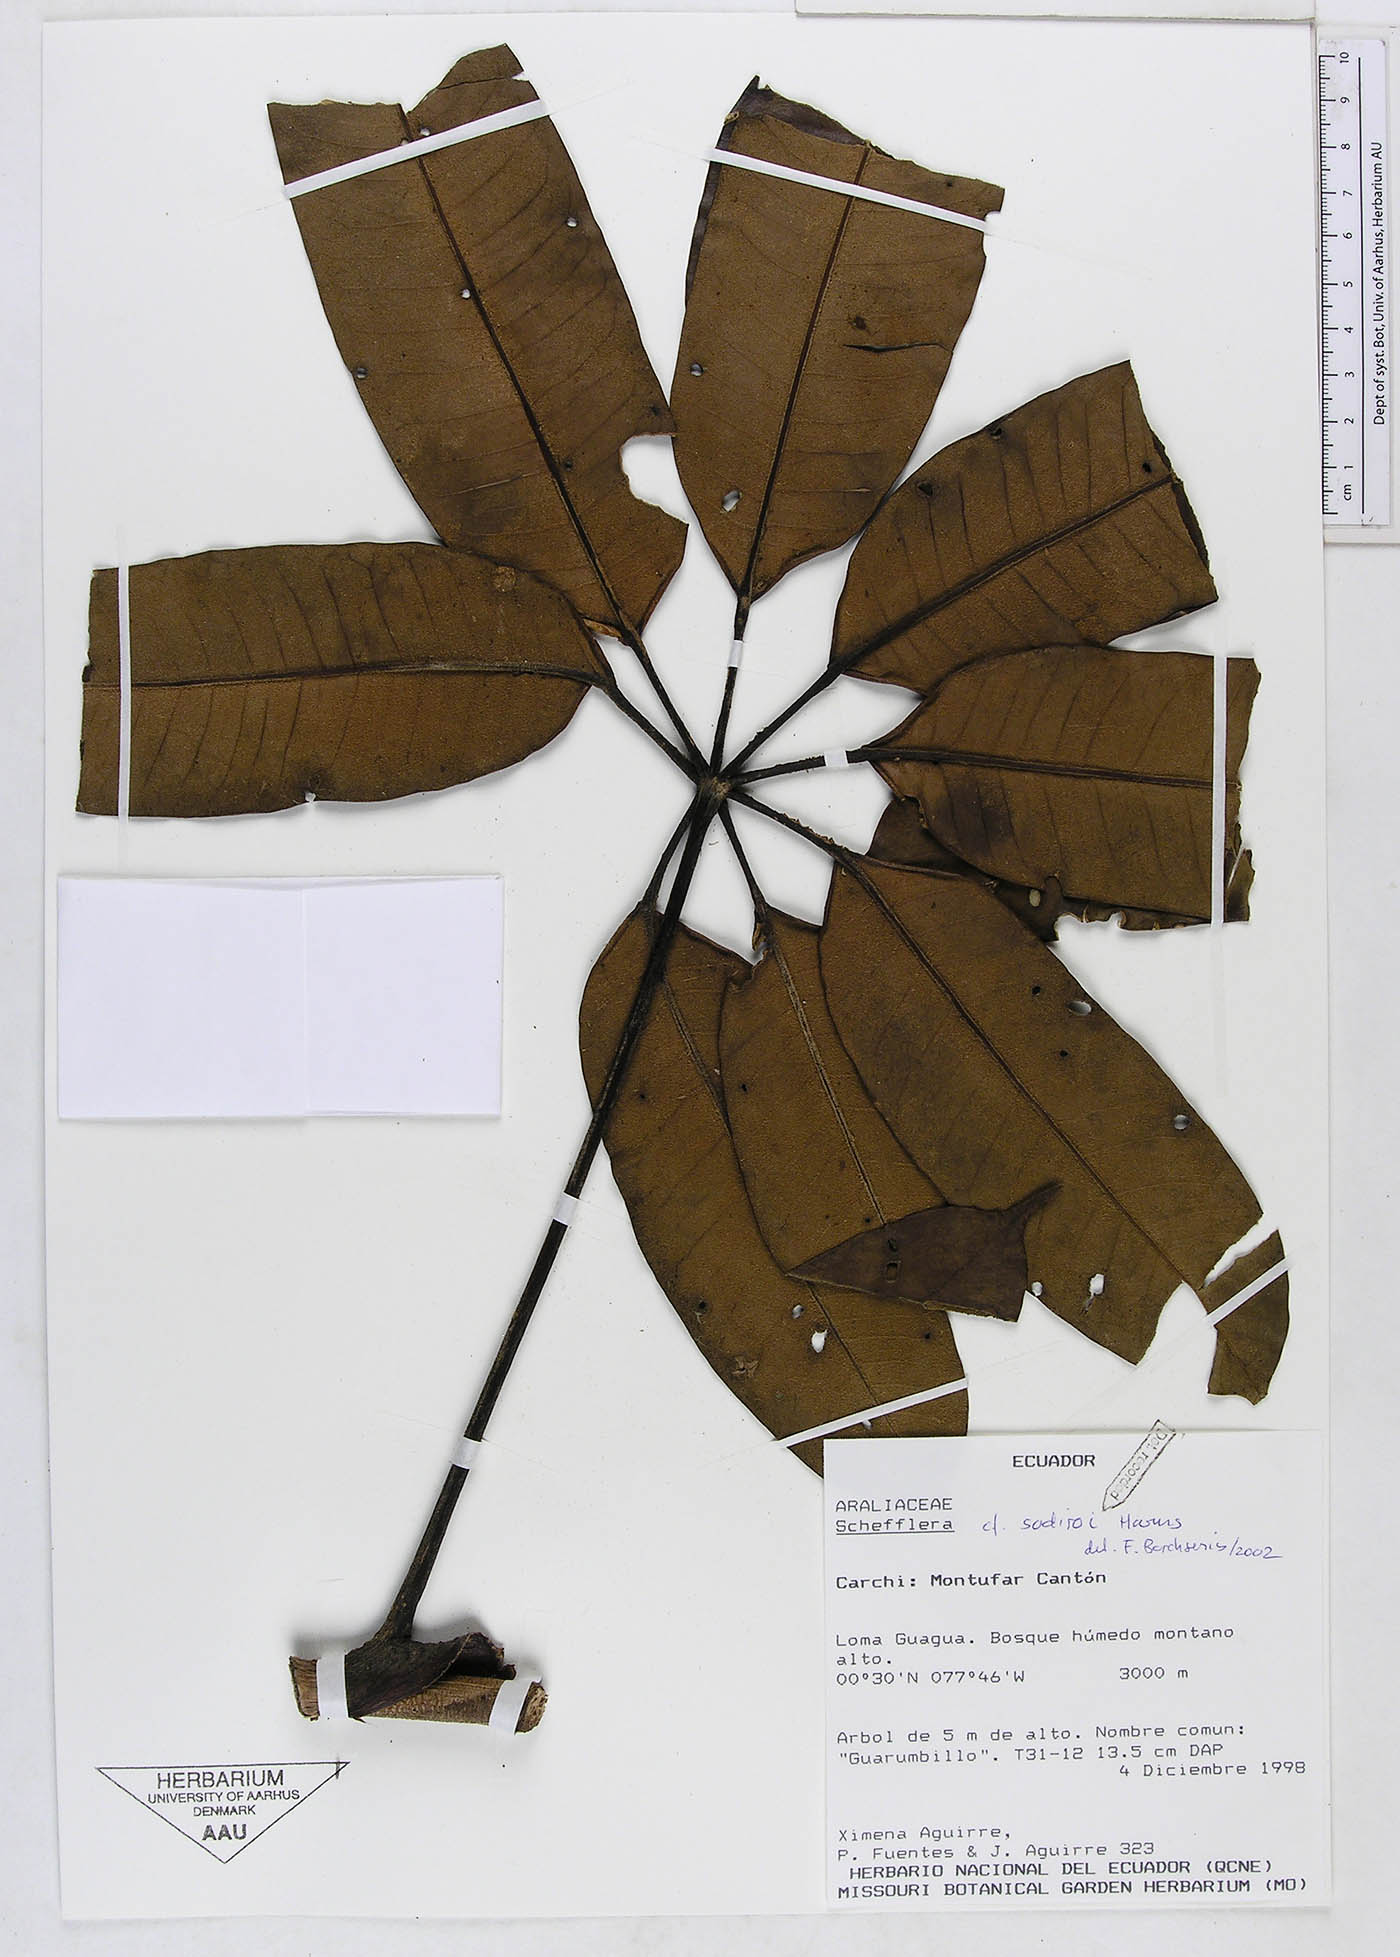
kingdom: Plantae
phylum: Tracheophyta
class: Magnoliopsida
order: Apiales
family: Araliaceae
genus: Sciodaphyllum
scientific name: Sciodaphyllum sodiroi
